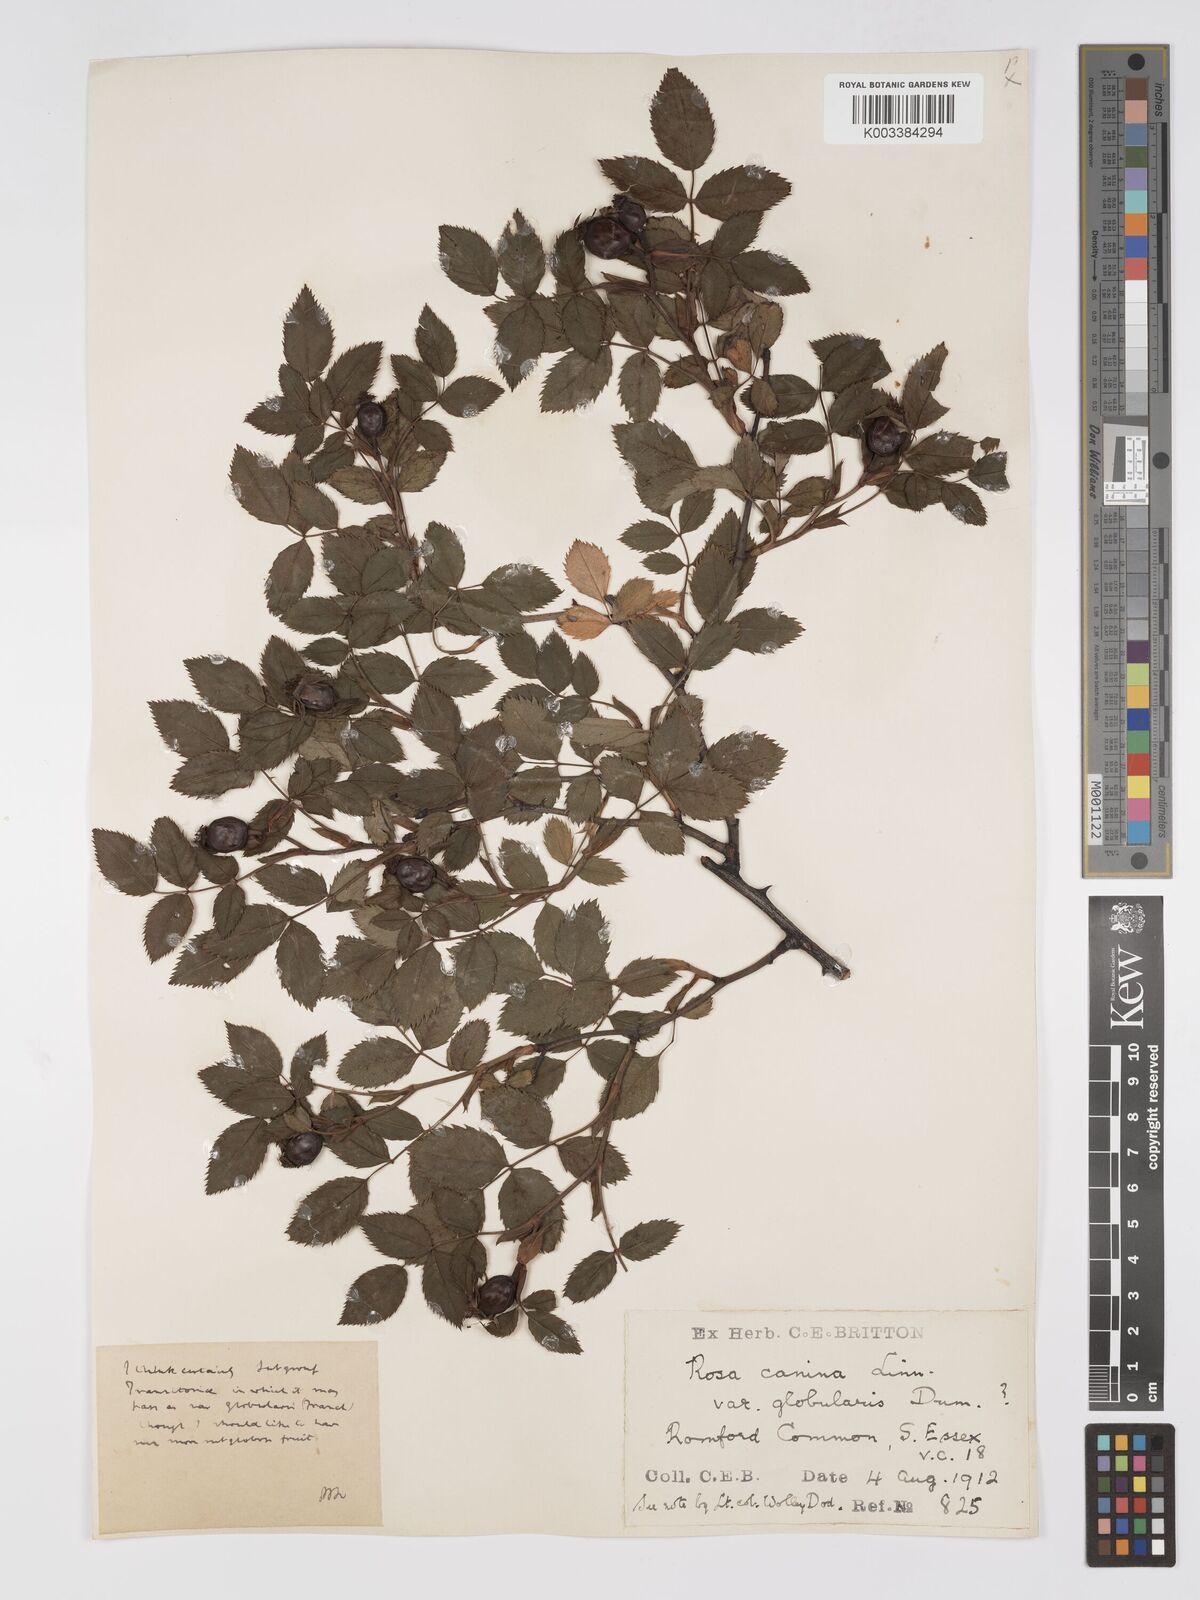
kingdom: Plantae
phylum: Tracheophyta
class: Magnoliopsida
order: Rosales
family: Rosaceae
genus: Rosa
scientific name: Rosa canina
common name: Dog rose
